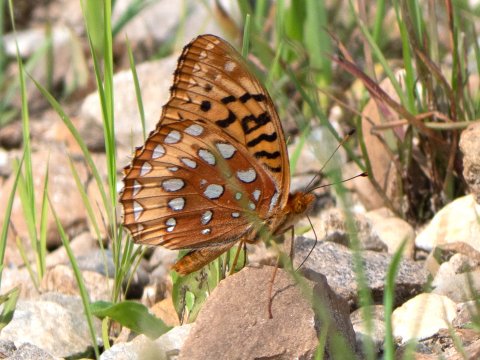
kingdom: Animalia
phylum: Arthropoda
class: Insecta
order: Lepidoptera
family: Nymphalidae
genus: Speyeria
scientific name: Speyeria cybele
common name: Great Spangled Fritillary
